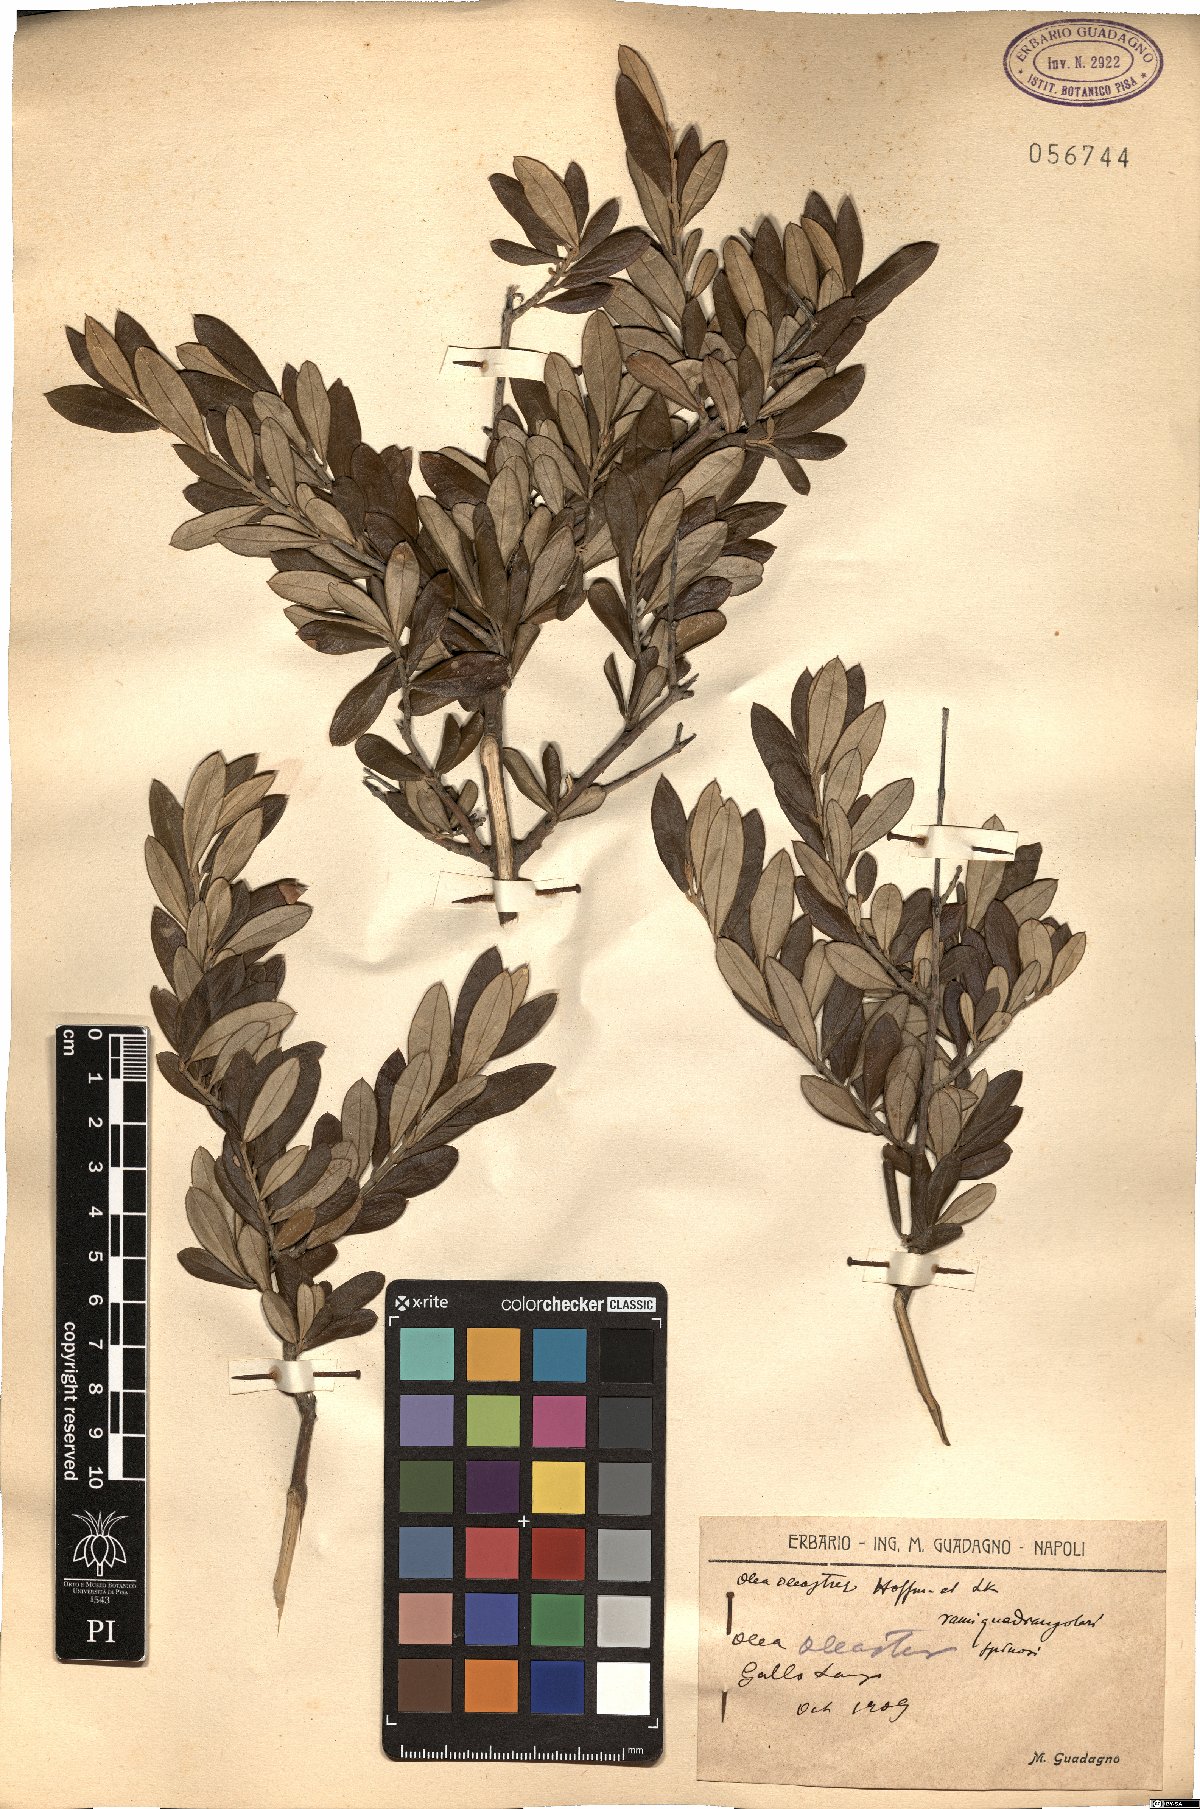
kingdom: Plantae
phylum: Tracheophyta
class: Magnoliopsida
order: Lamiales
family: Oleaceae
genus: Olea
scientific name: Olea europaea
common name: Olive
